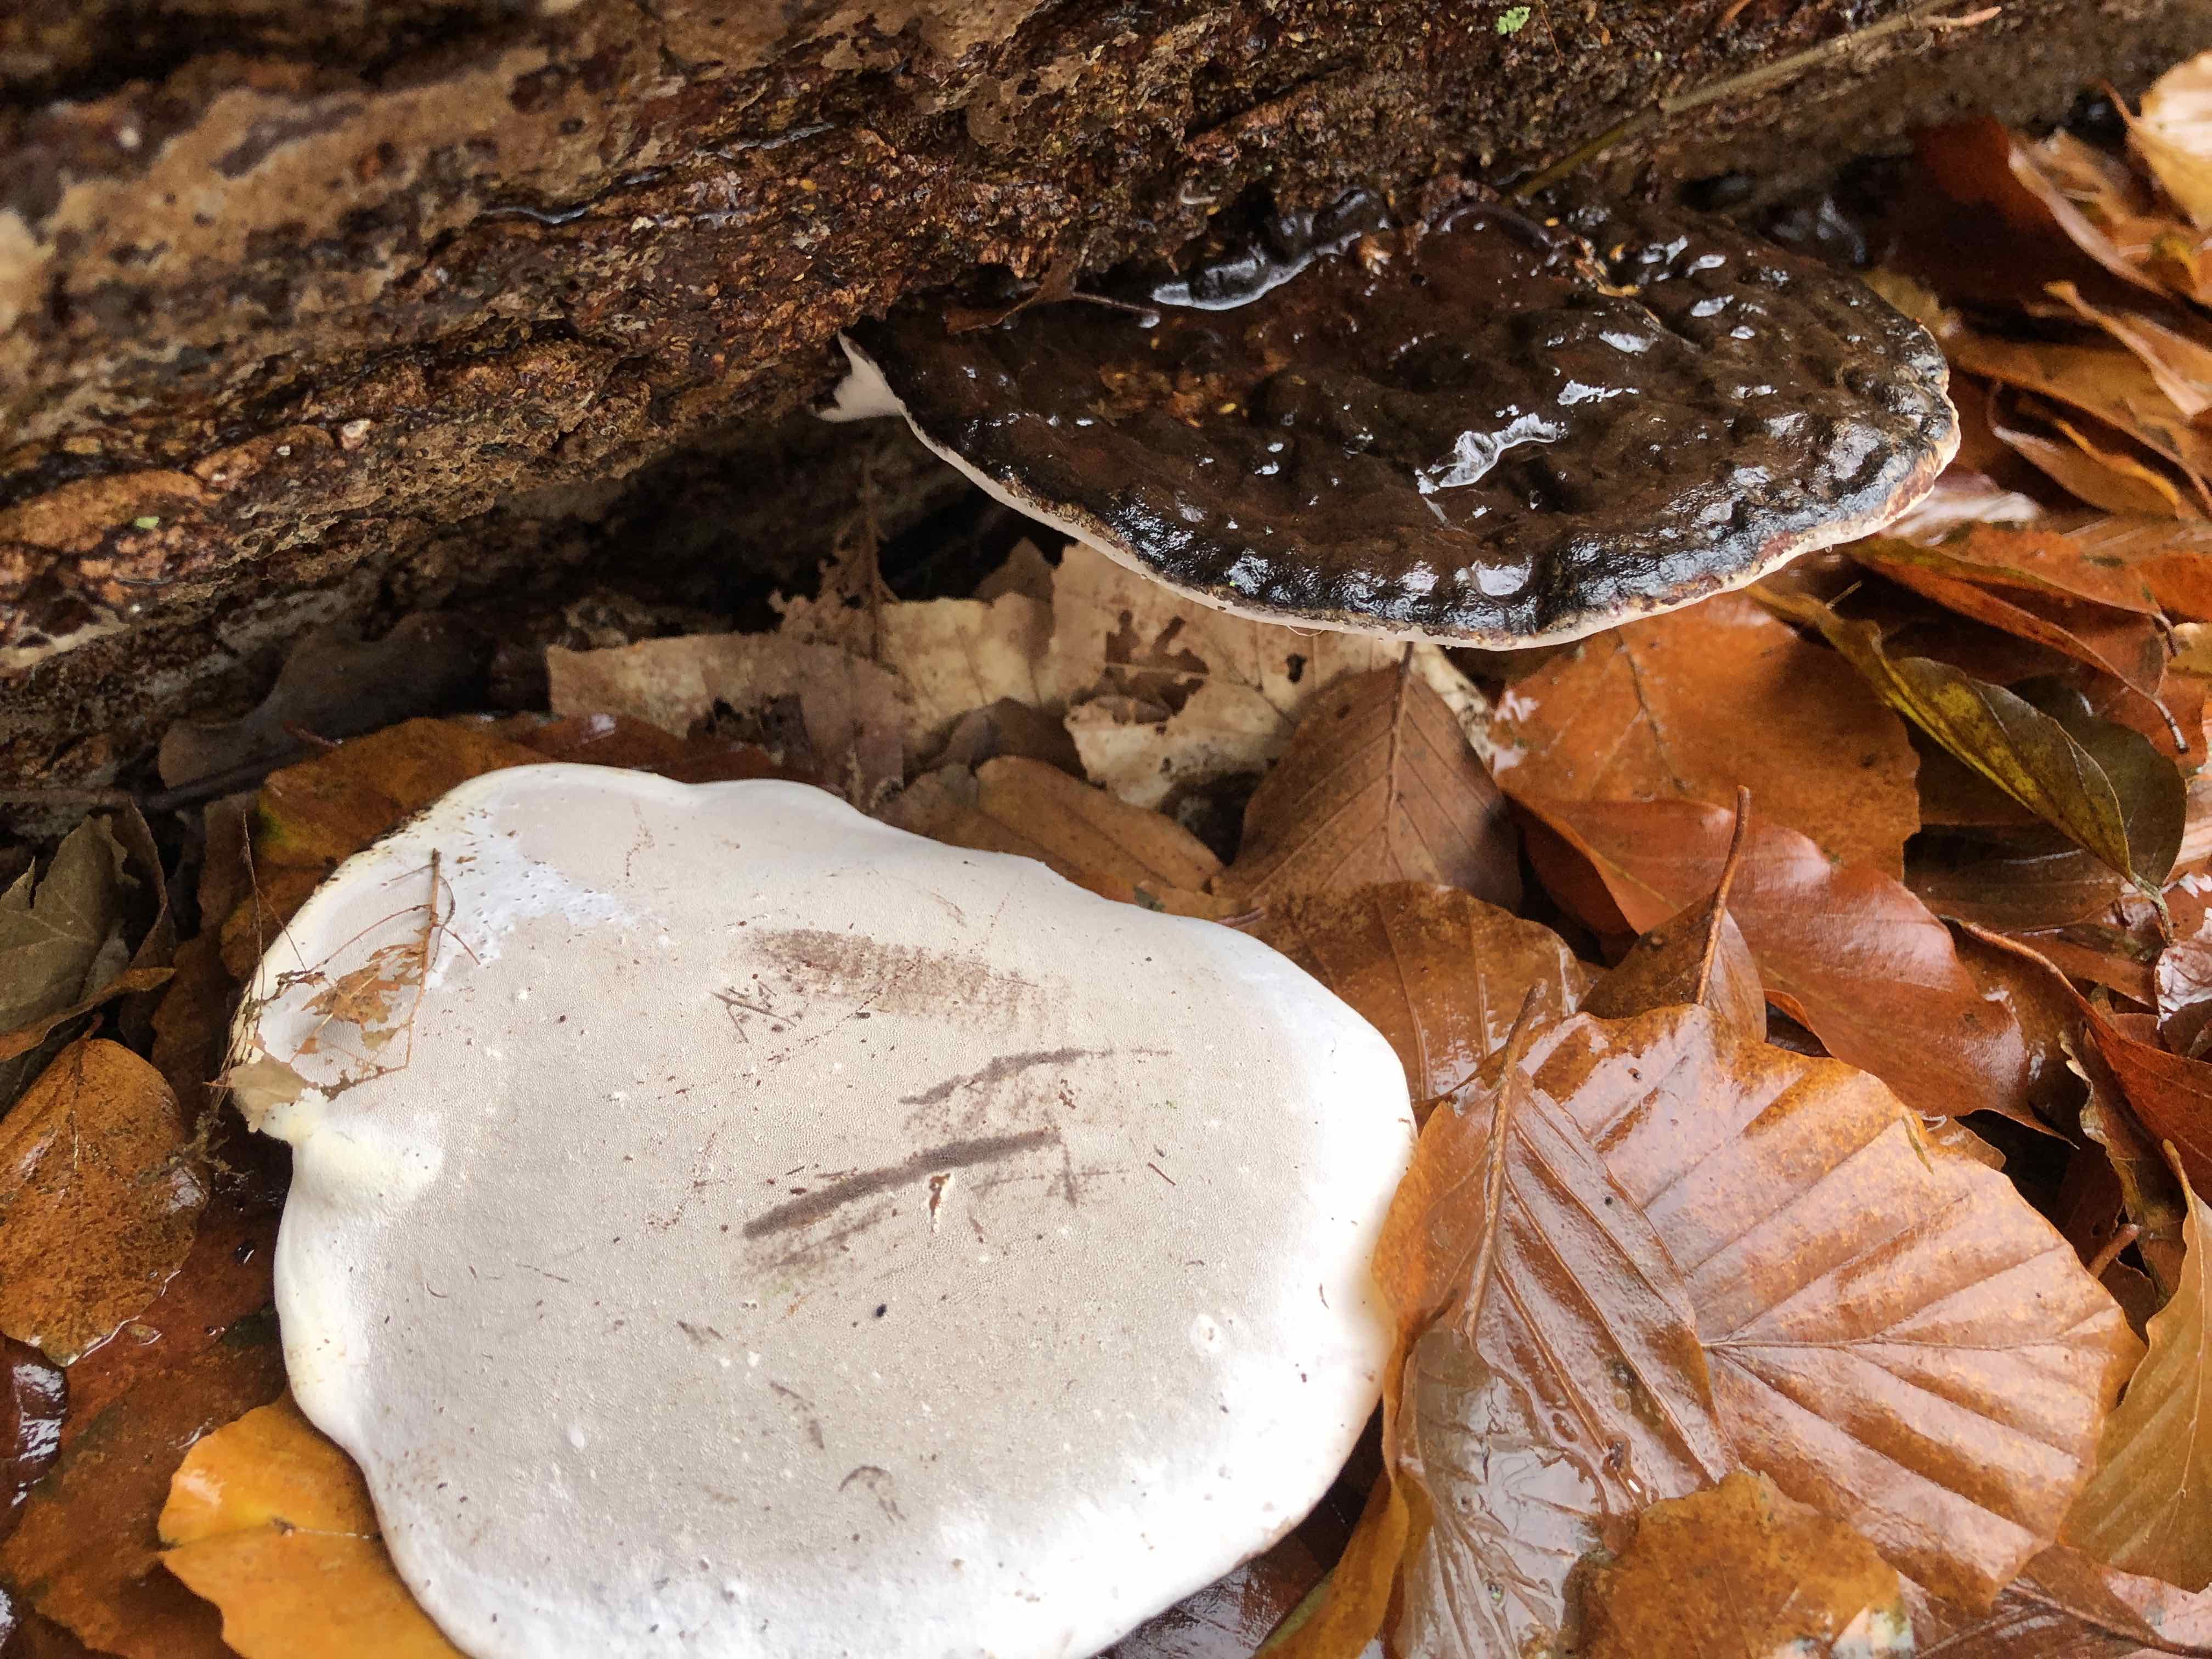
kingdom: Fungi
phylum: Basidiomycota
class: Agaricomycetes
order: Polyporales
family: Polyporaceae
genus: Ganoderma
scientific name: Ganoderma applanatum
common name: flad lakporesvamp
